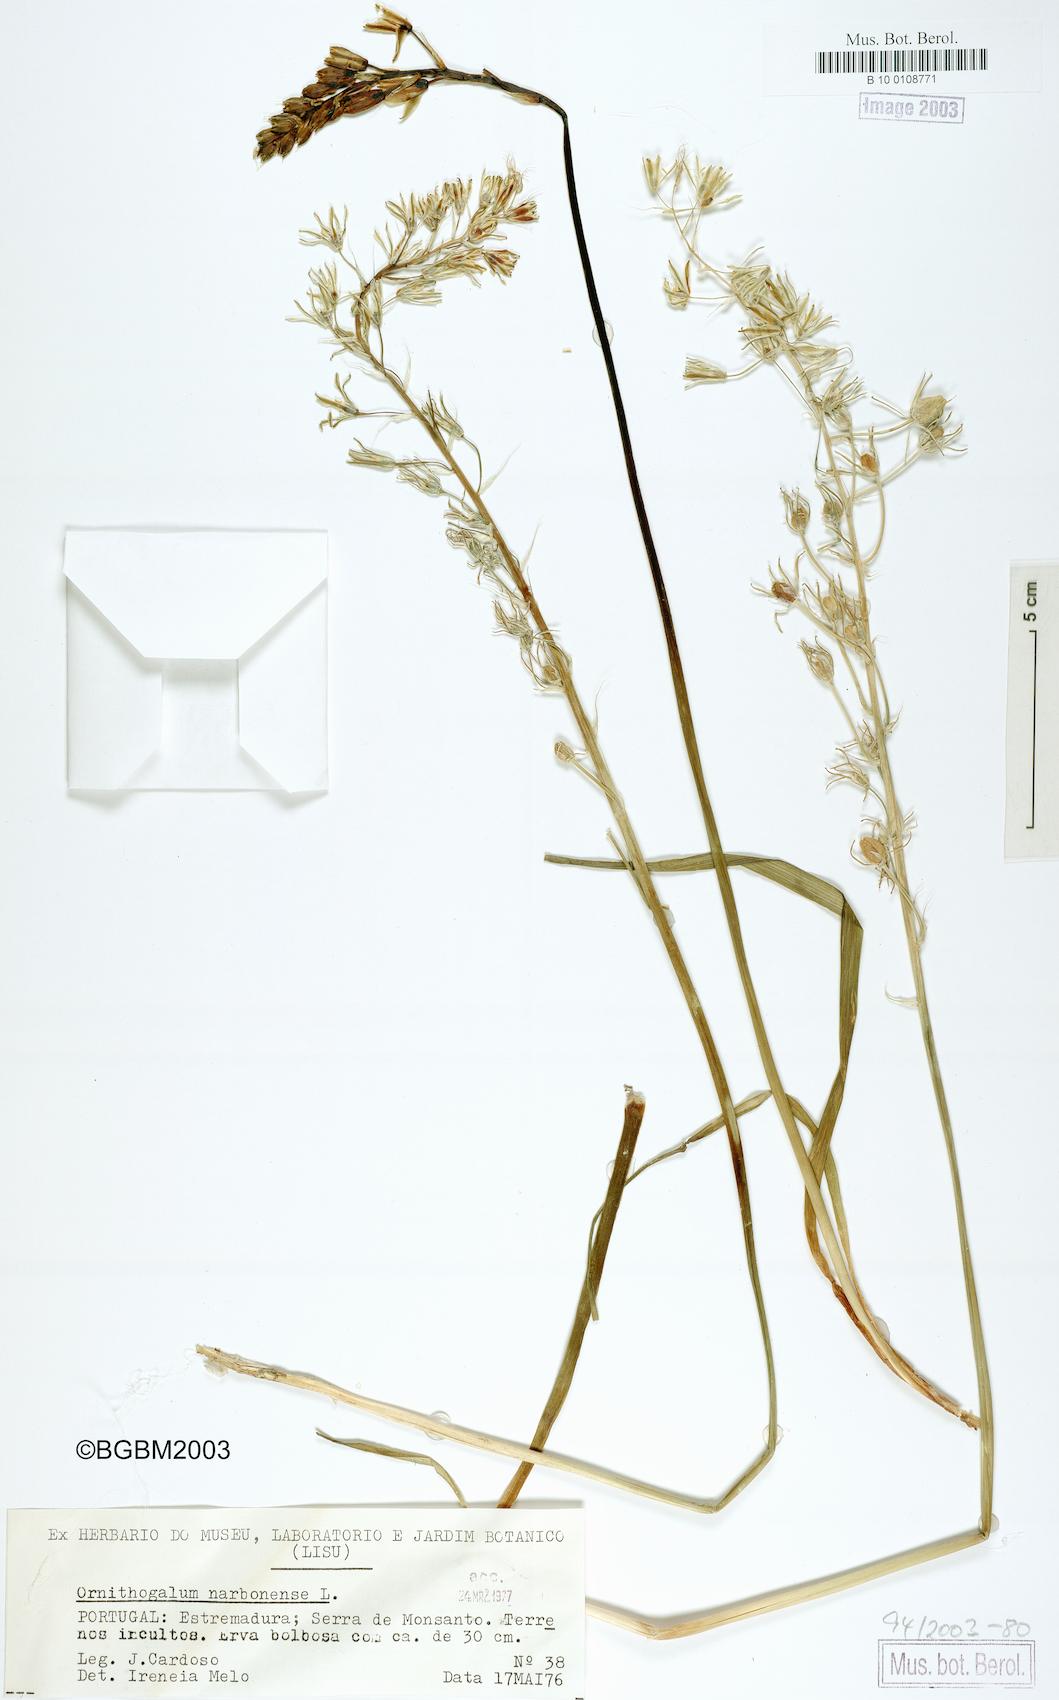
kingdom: Plantae
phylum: Tracheophyta
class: Liliopsida
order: Asparagales
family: Asparagaceae
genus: Ornithogalum
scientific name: Ornithogalum narbonense
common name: Bath-asparagus
